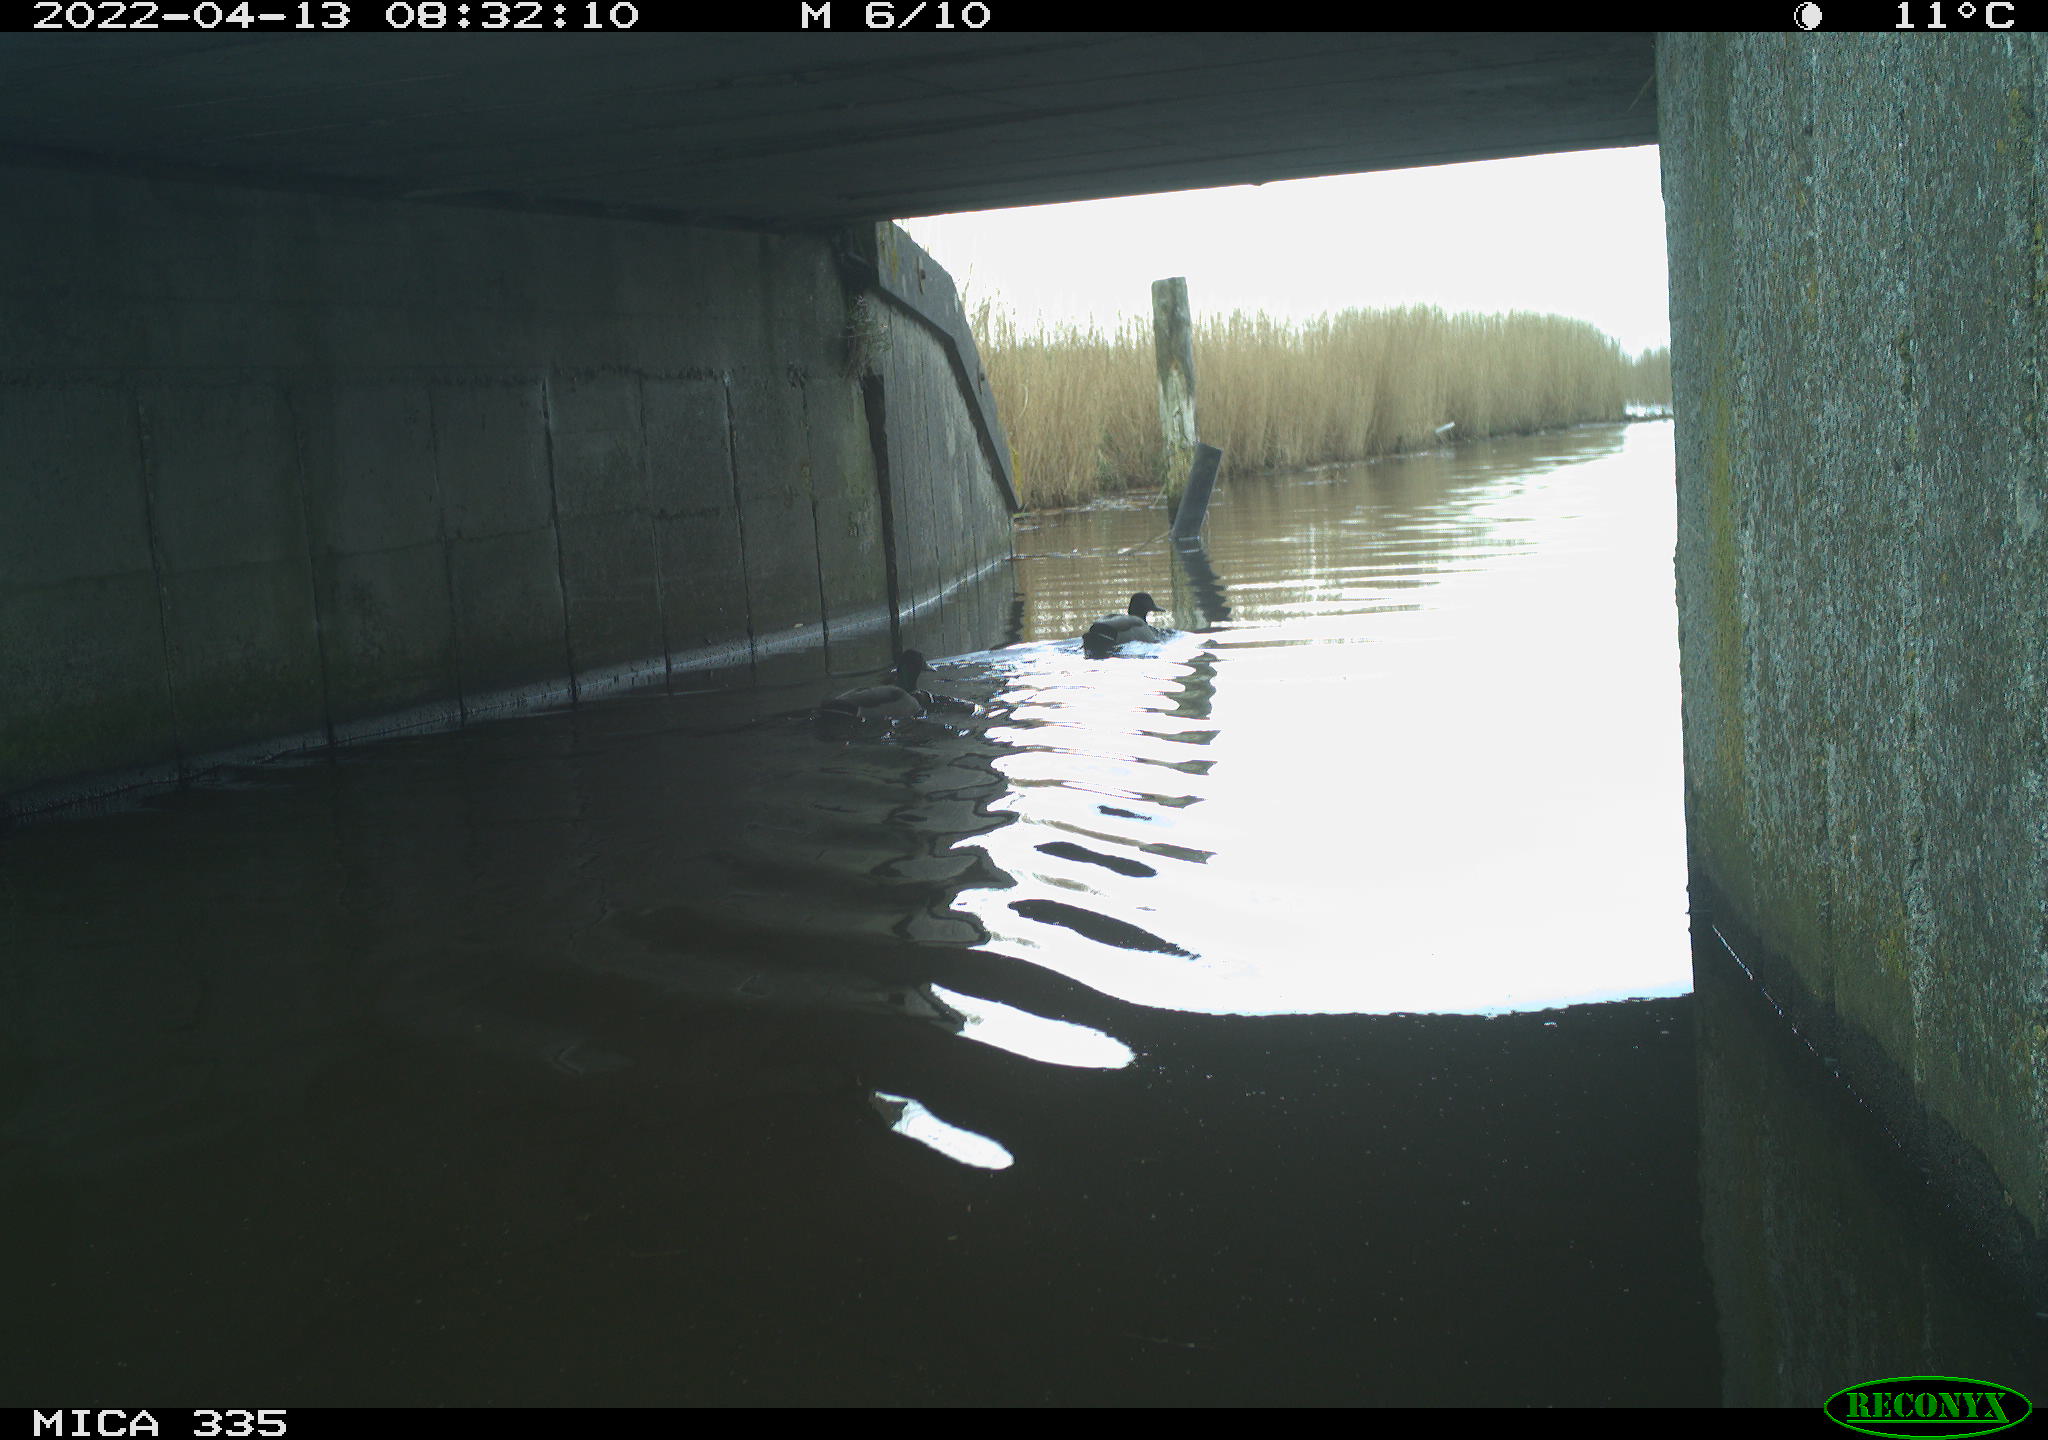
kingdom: Animalia
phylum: Chordata
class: Aves
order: Anseriformes
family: Anatidae
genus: Anas
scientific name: Anas platyrhynchos
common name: Mallard
